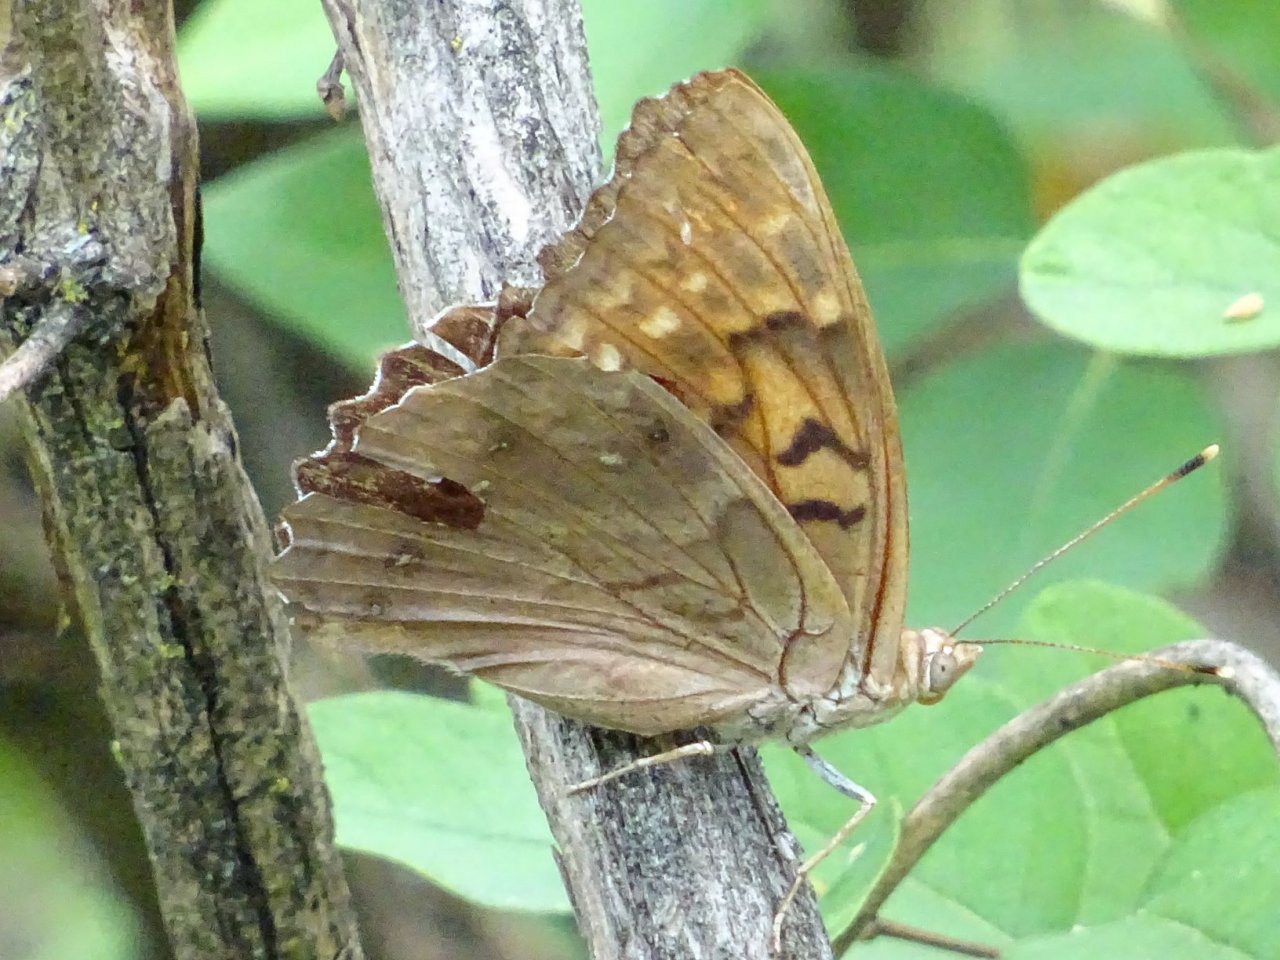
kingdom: Animalia
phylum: Arthropoda
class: Insecta
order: Lepidoptera
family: Nymphalidae
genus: Asterocampa
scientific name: Asterocampa clyton
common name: Tawny Emperor
